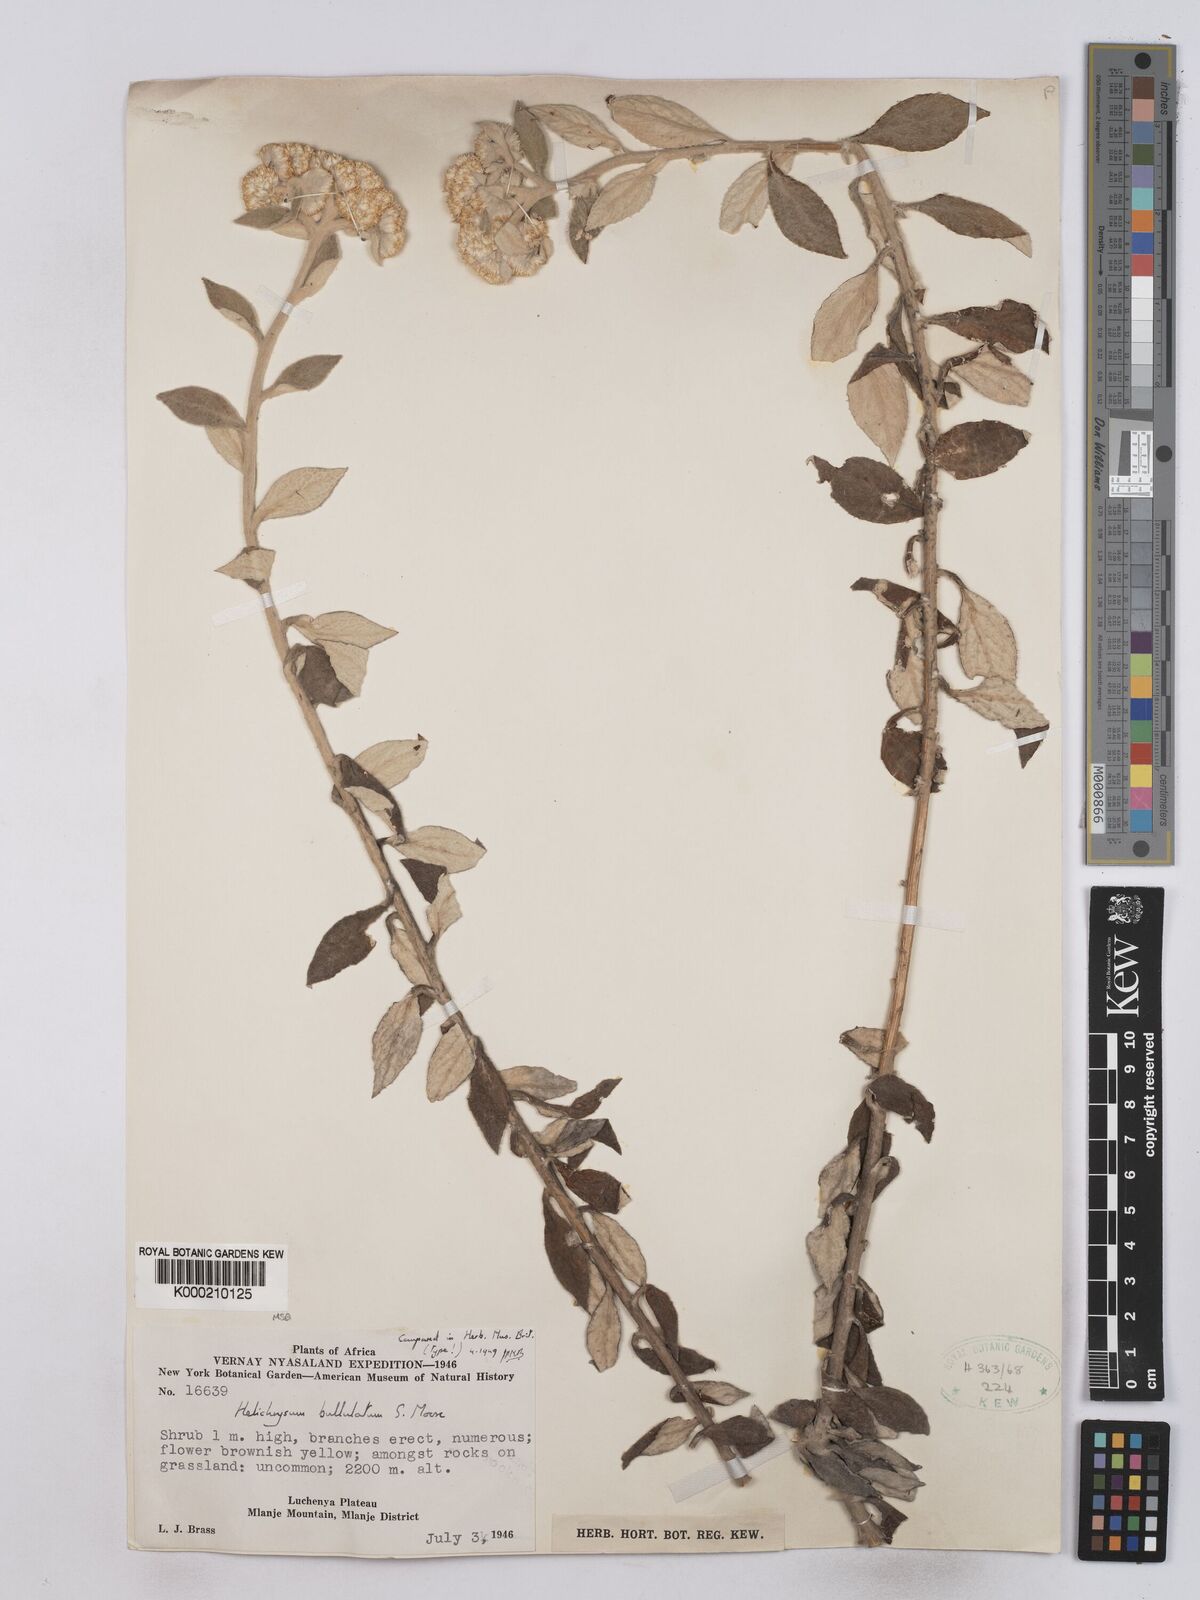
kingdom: Plantae
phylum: Tracheophyta
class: Magnoliopsida
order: Asterales
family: Asteraceae
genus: Helichrysum
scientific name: Helichrysum bullulatum
